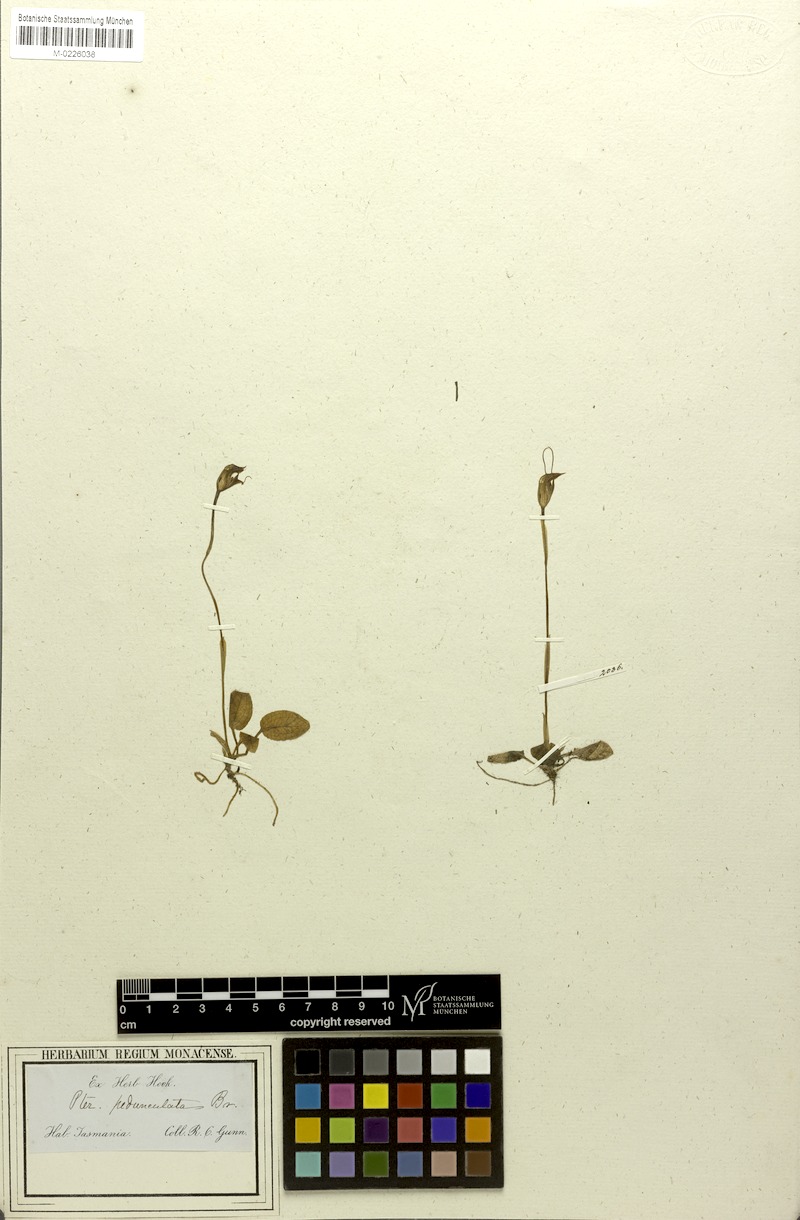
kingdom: Plantae
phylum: Tracheophyta
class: Liliopsida
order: Asparagales
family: Orchidaceae
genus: Pterostylis
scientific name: Pterostylis pedunculata
